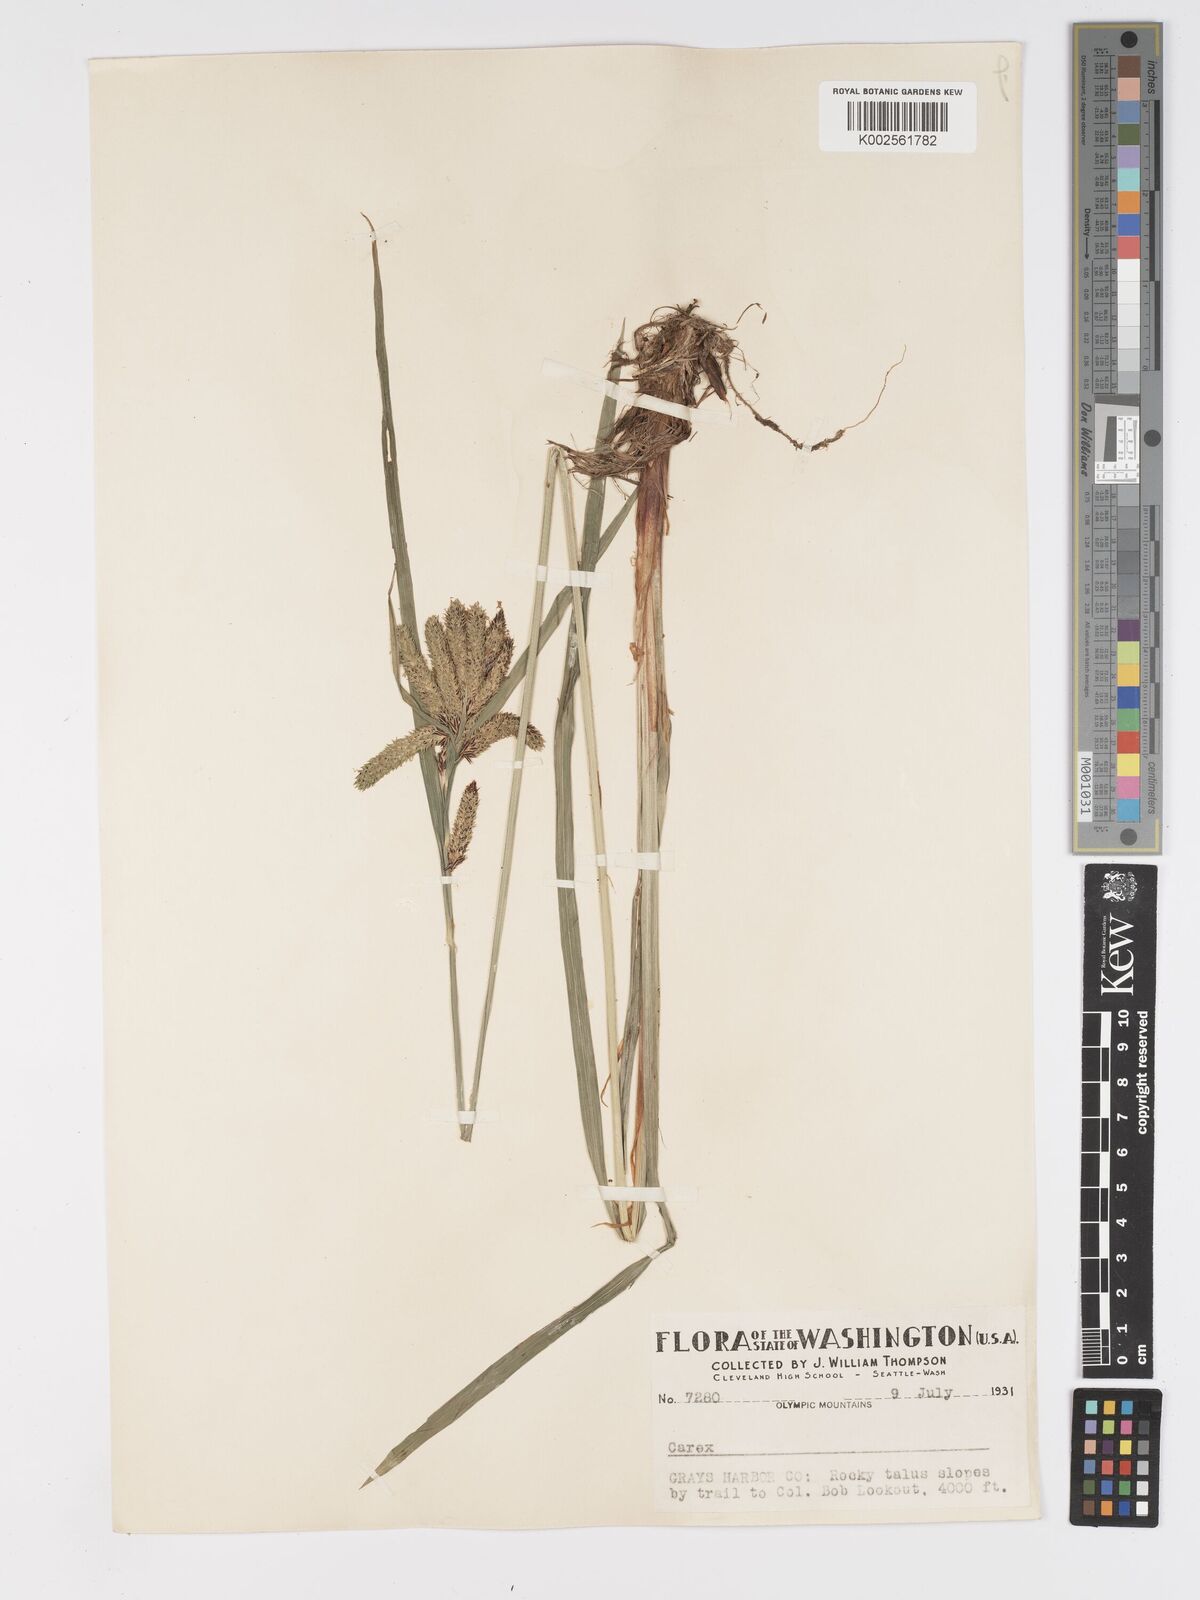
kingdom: Plantae
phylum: Tracheophyta
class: Liliopsida
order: Poales
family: Cyperaceae
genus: Carex
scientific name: Carex mertensii
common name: Mertens' sedge
